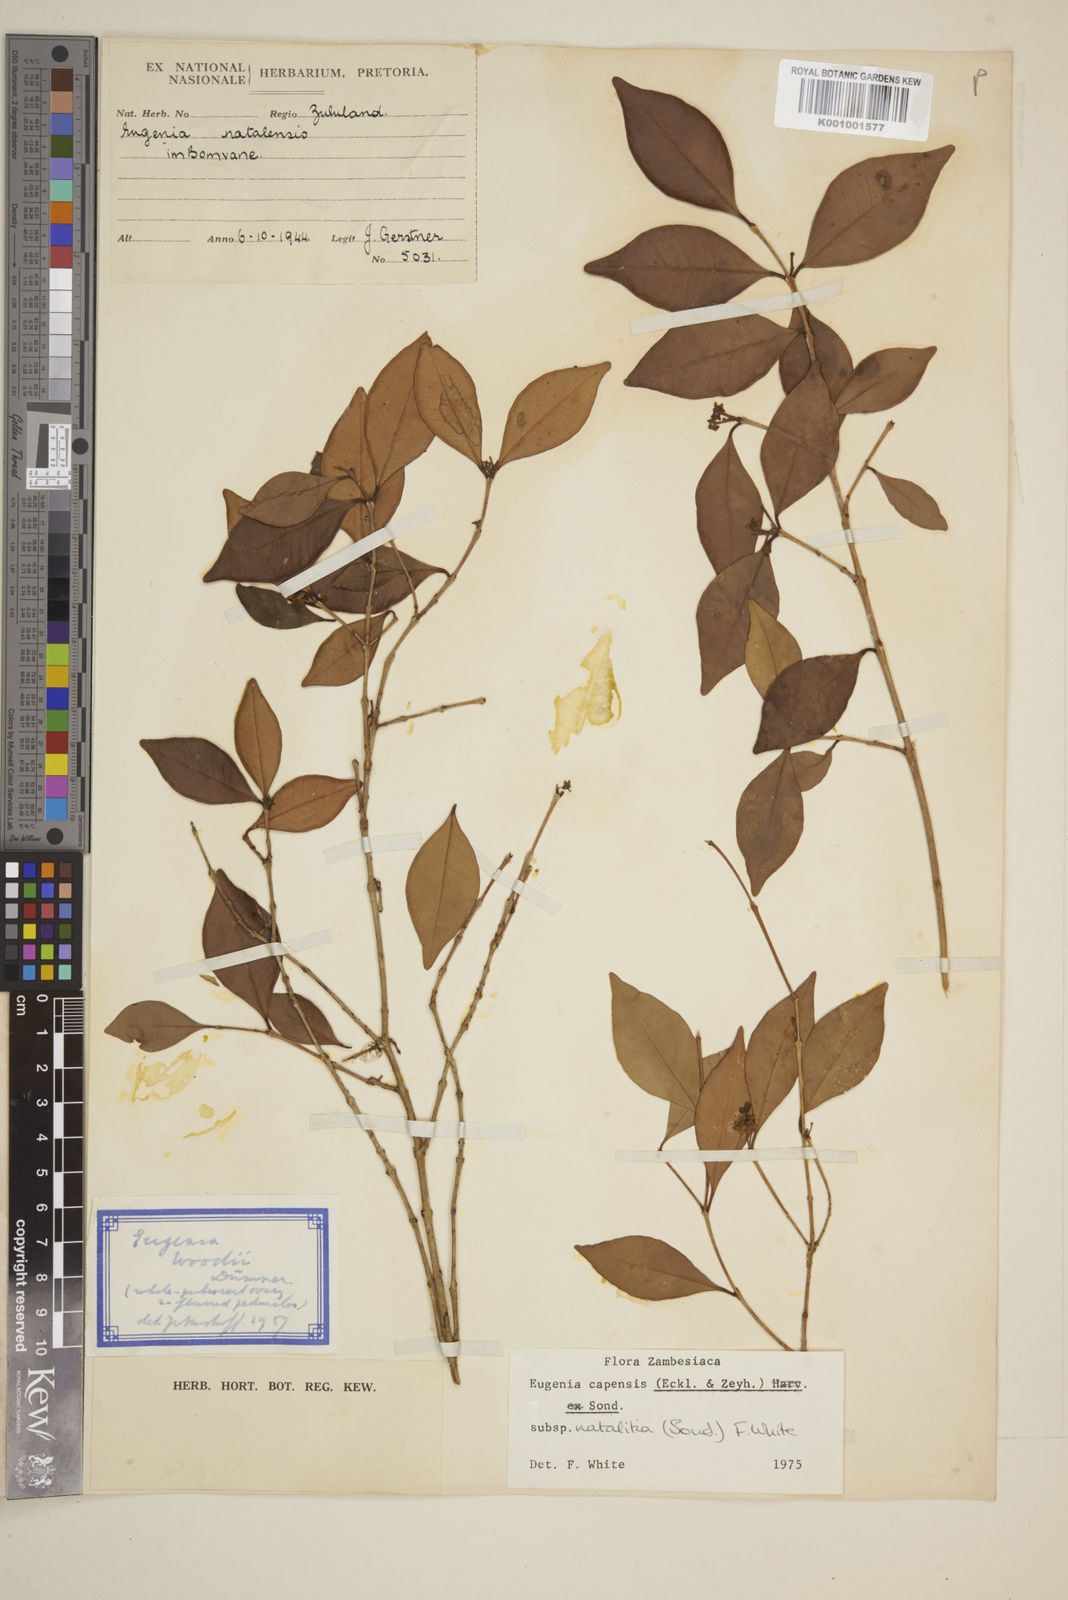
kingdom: Plantae
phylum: Tracheophyta
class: Magnoliopsida
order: Myrtales
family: Myrtaceae
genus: Eugenia
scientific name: Eugenia natalitia
